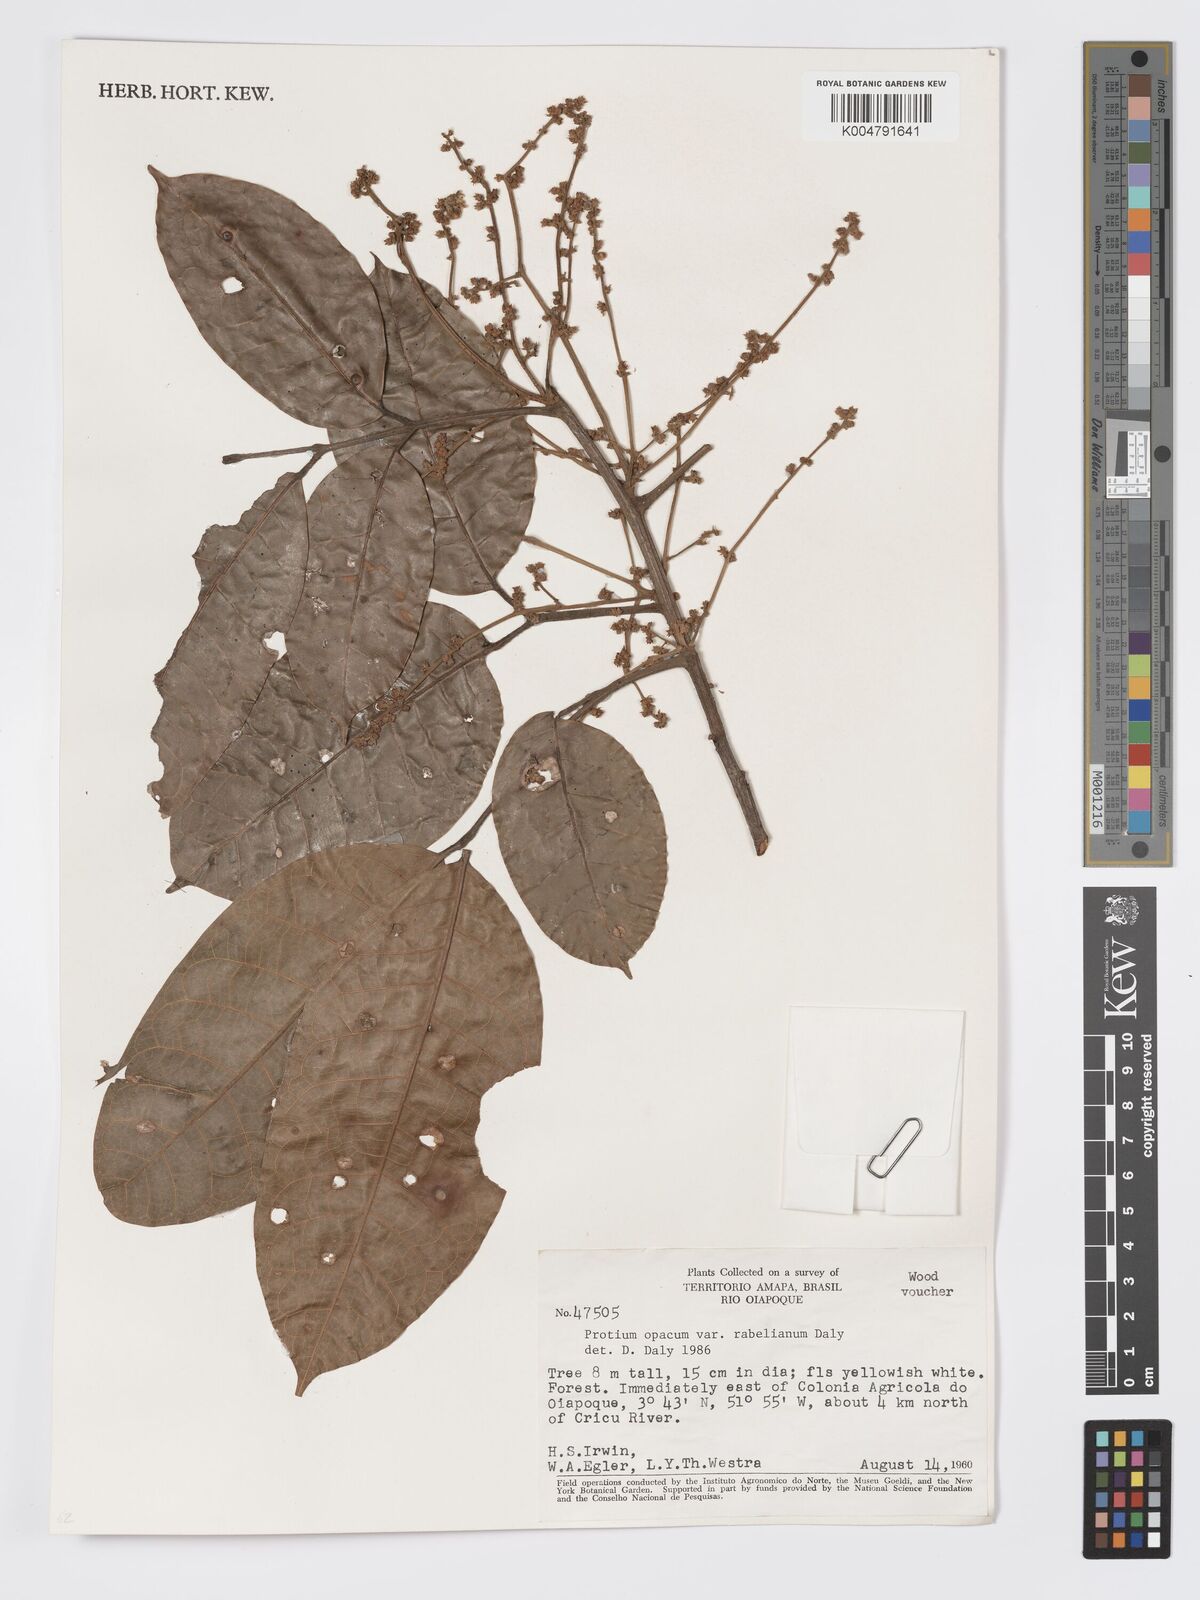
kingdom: Plantae
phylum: Tracheophyta
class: Magnoliopsida
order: Sapindales
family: Burseraceae
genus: Protium
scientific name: Protium opacum
